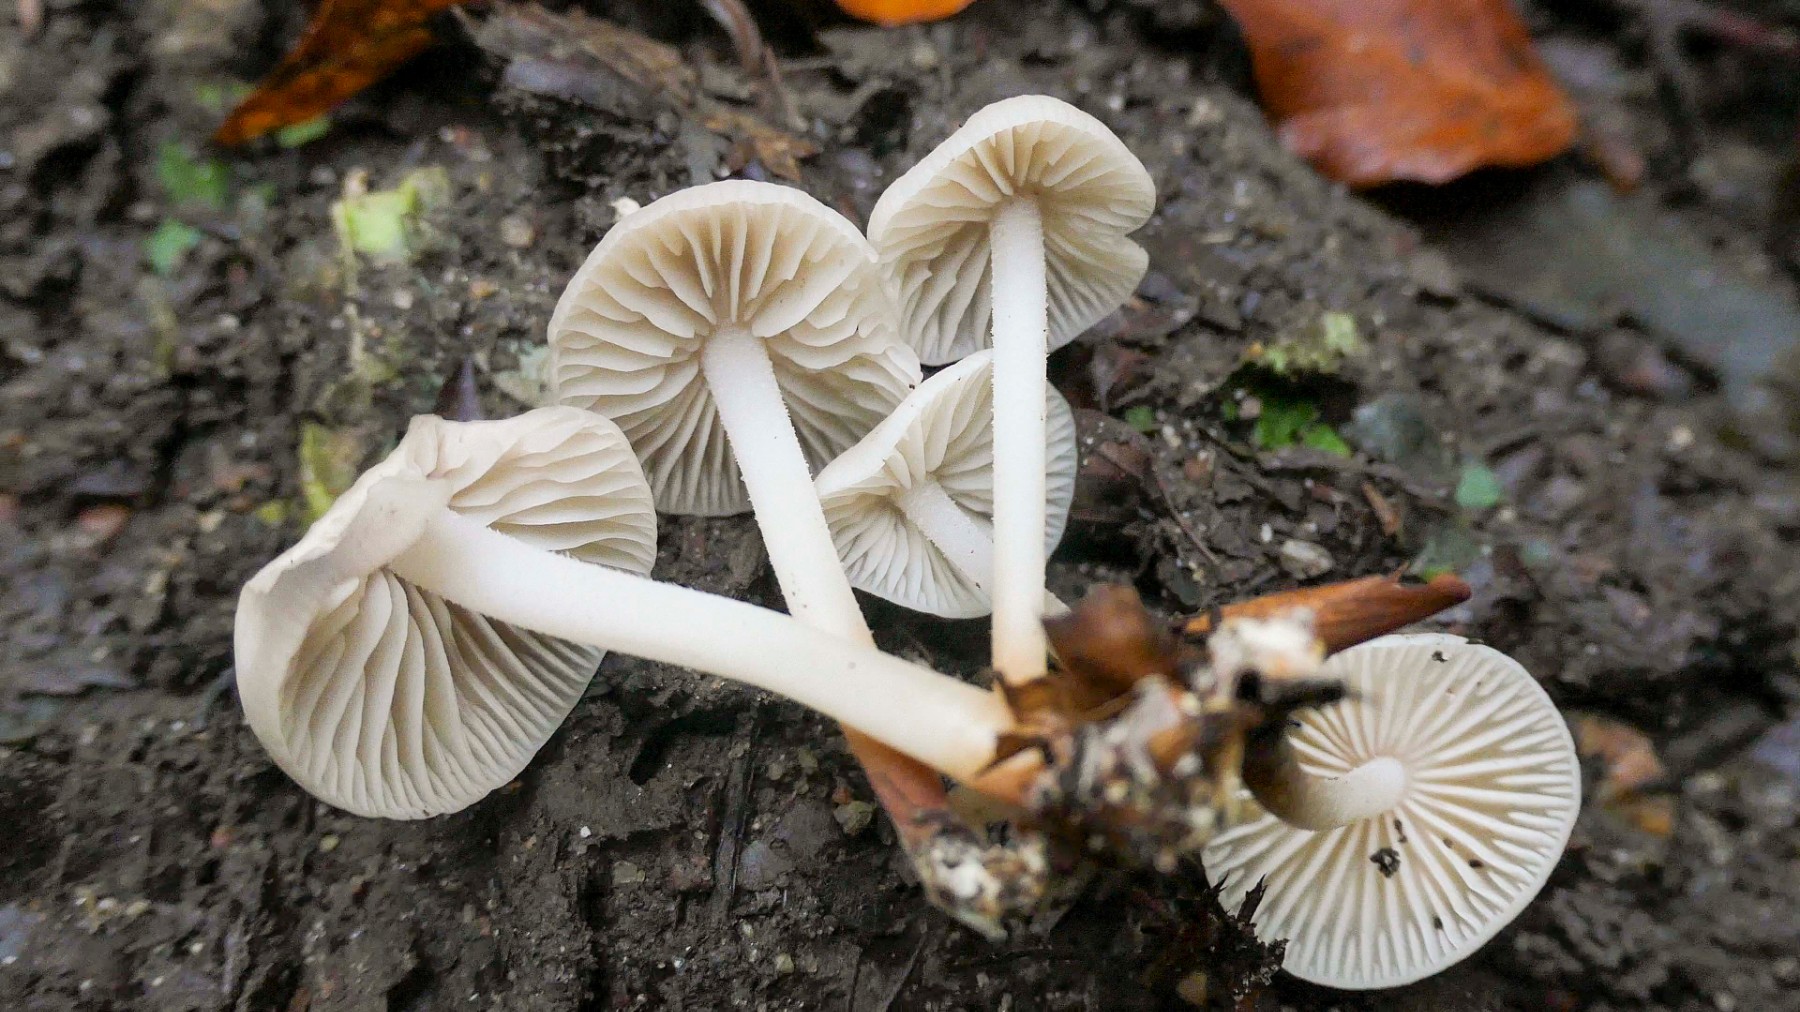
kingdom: Fungi
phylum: Basidiomycota
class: Agaricomycetes
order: Agaricales
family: Marasmiaceae
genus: Marasmius
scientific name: Marasmius wynneae
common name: hvælvet bruskhat
